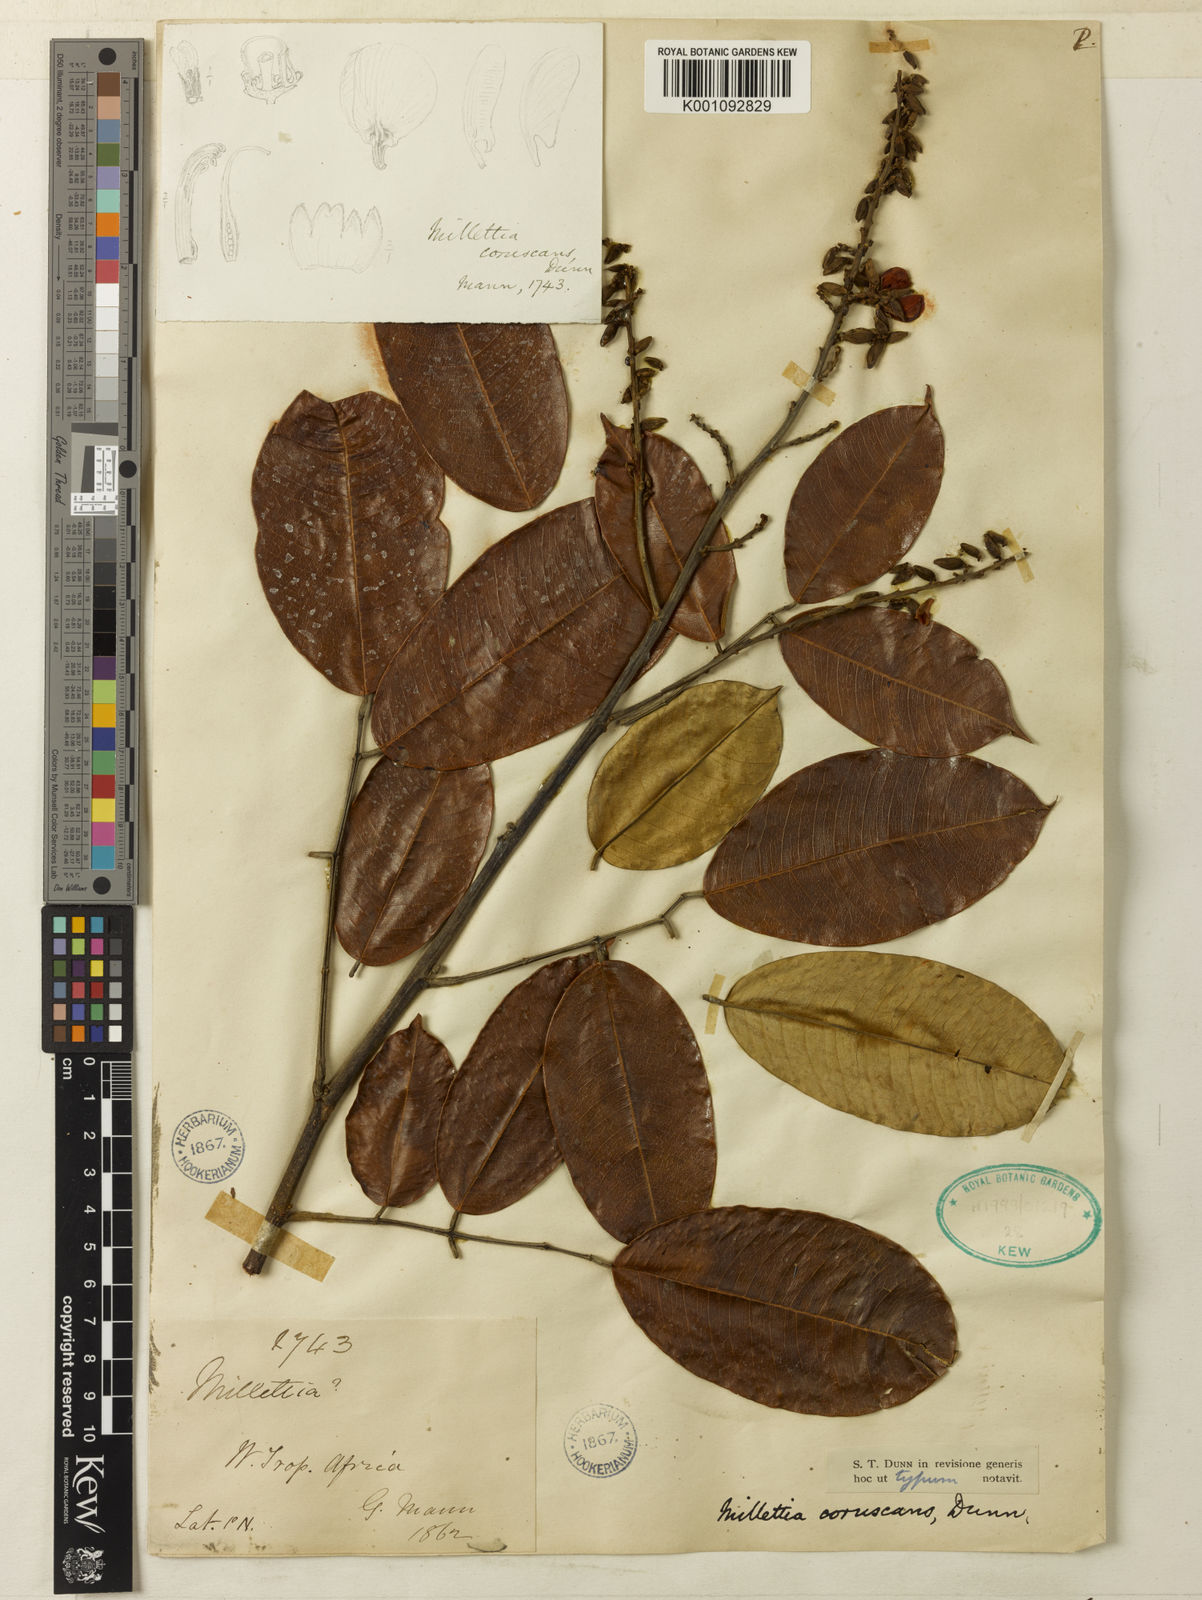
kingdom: Plantae
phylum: Tracheophyta
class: Magnoliopsida
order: Fabales
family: Fabaceae
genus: Millettia
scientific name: Millettia coruscans
